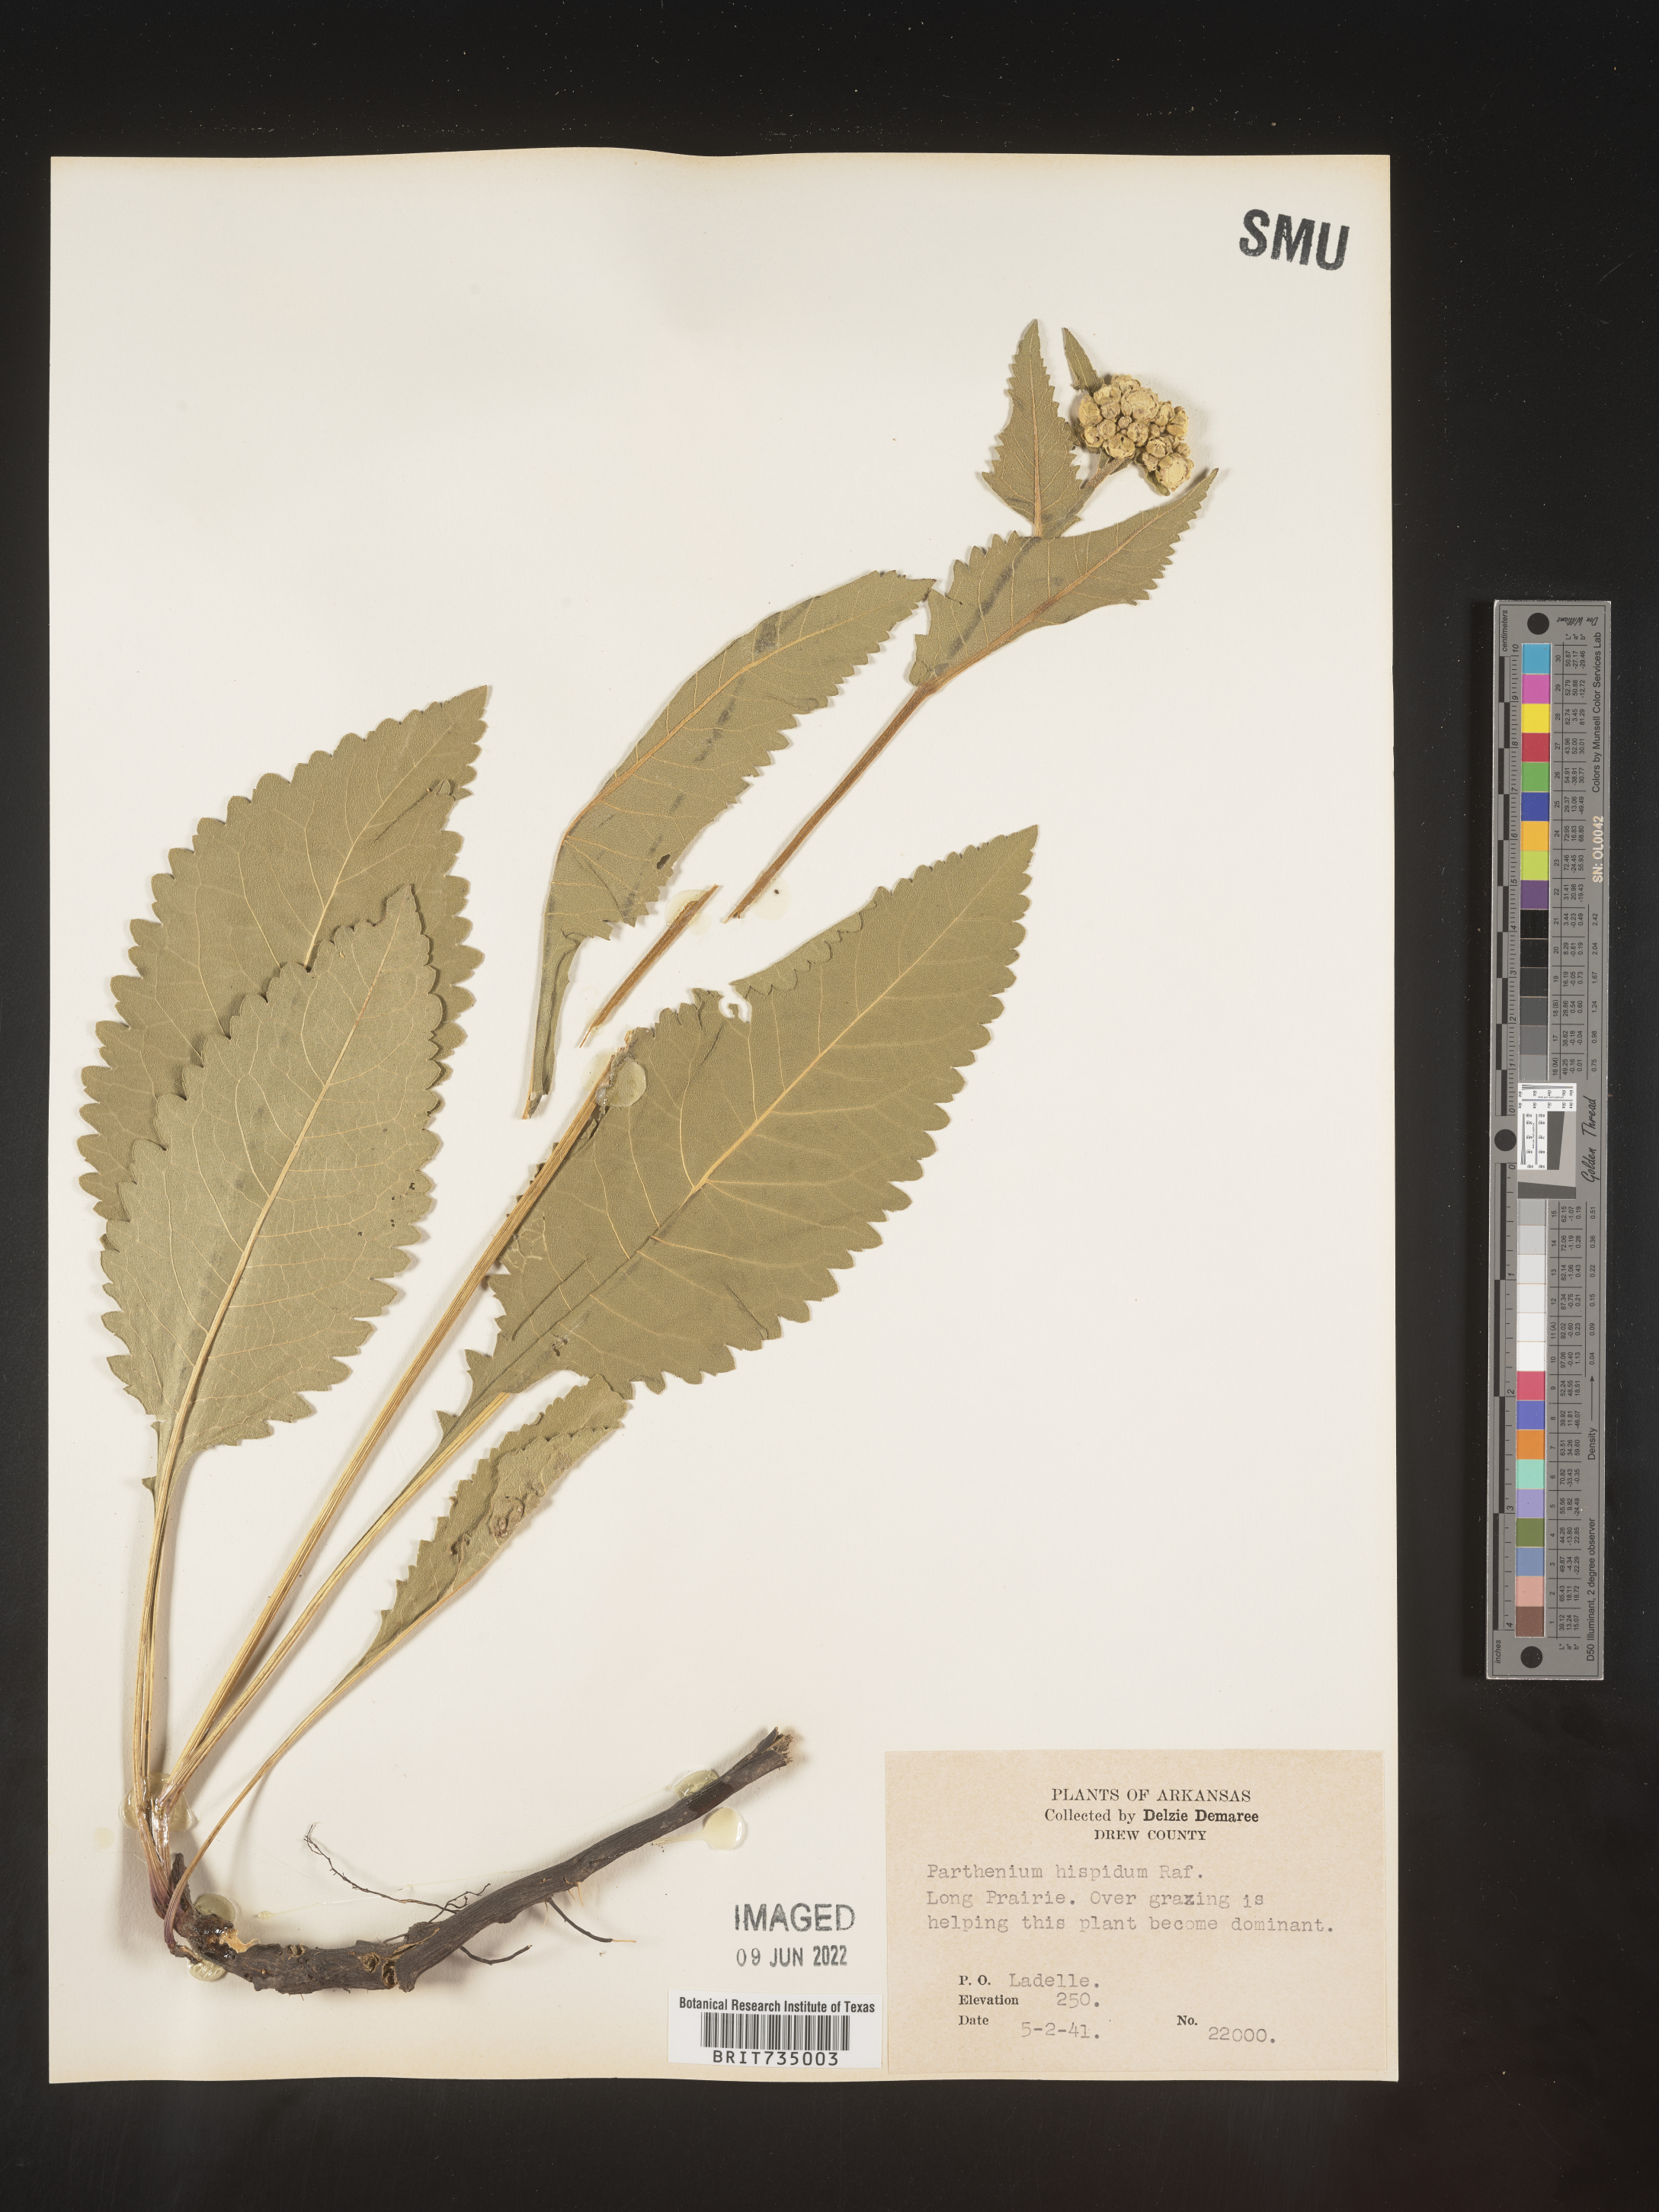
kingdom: Plantae
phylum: Tracheophyta
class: Magnoliopsida
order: Asterales
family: Asteraceae
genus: Parthenium
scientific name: Parthenium hispidum
